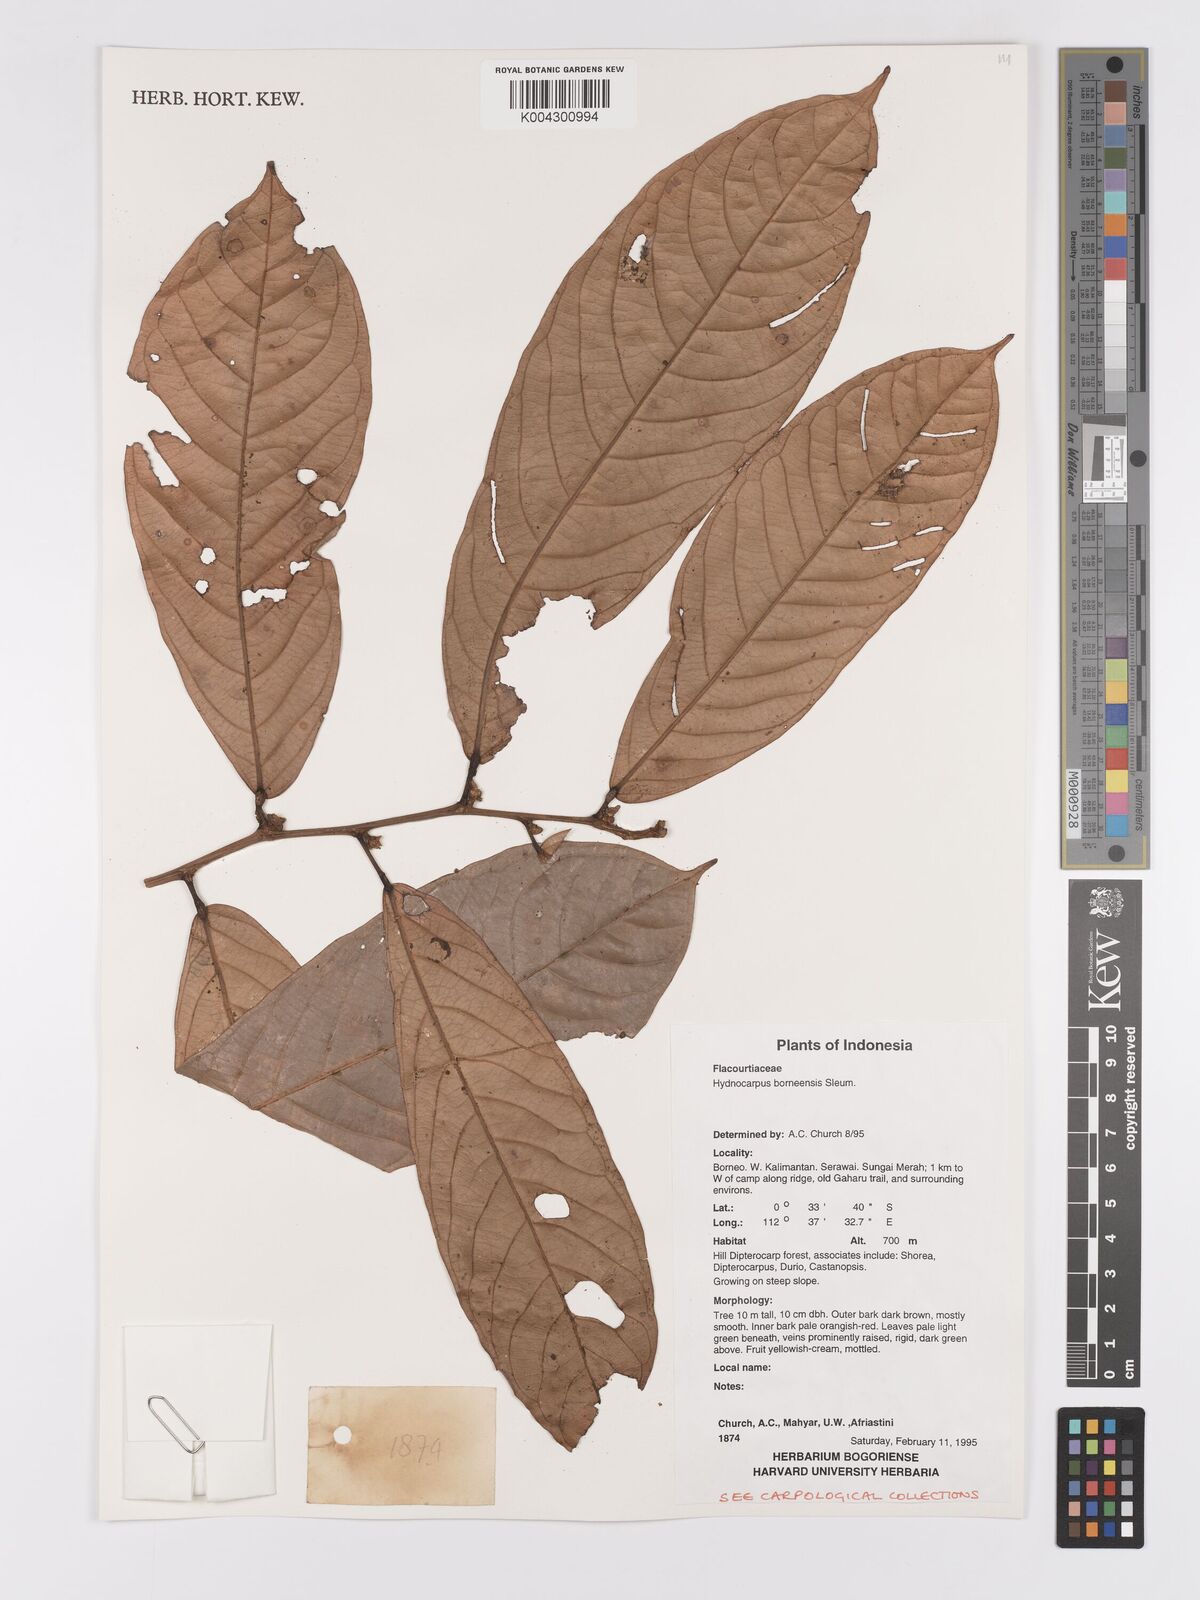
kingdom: Plantae
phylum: Tracheophyta
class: Magnoliopsida
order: Malpighiales
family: Achariaceae
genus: Hydnocarpus
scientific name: Hydnocarpus borneensis
